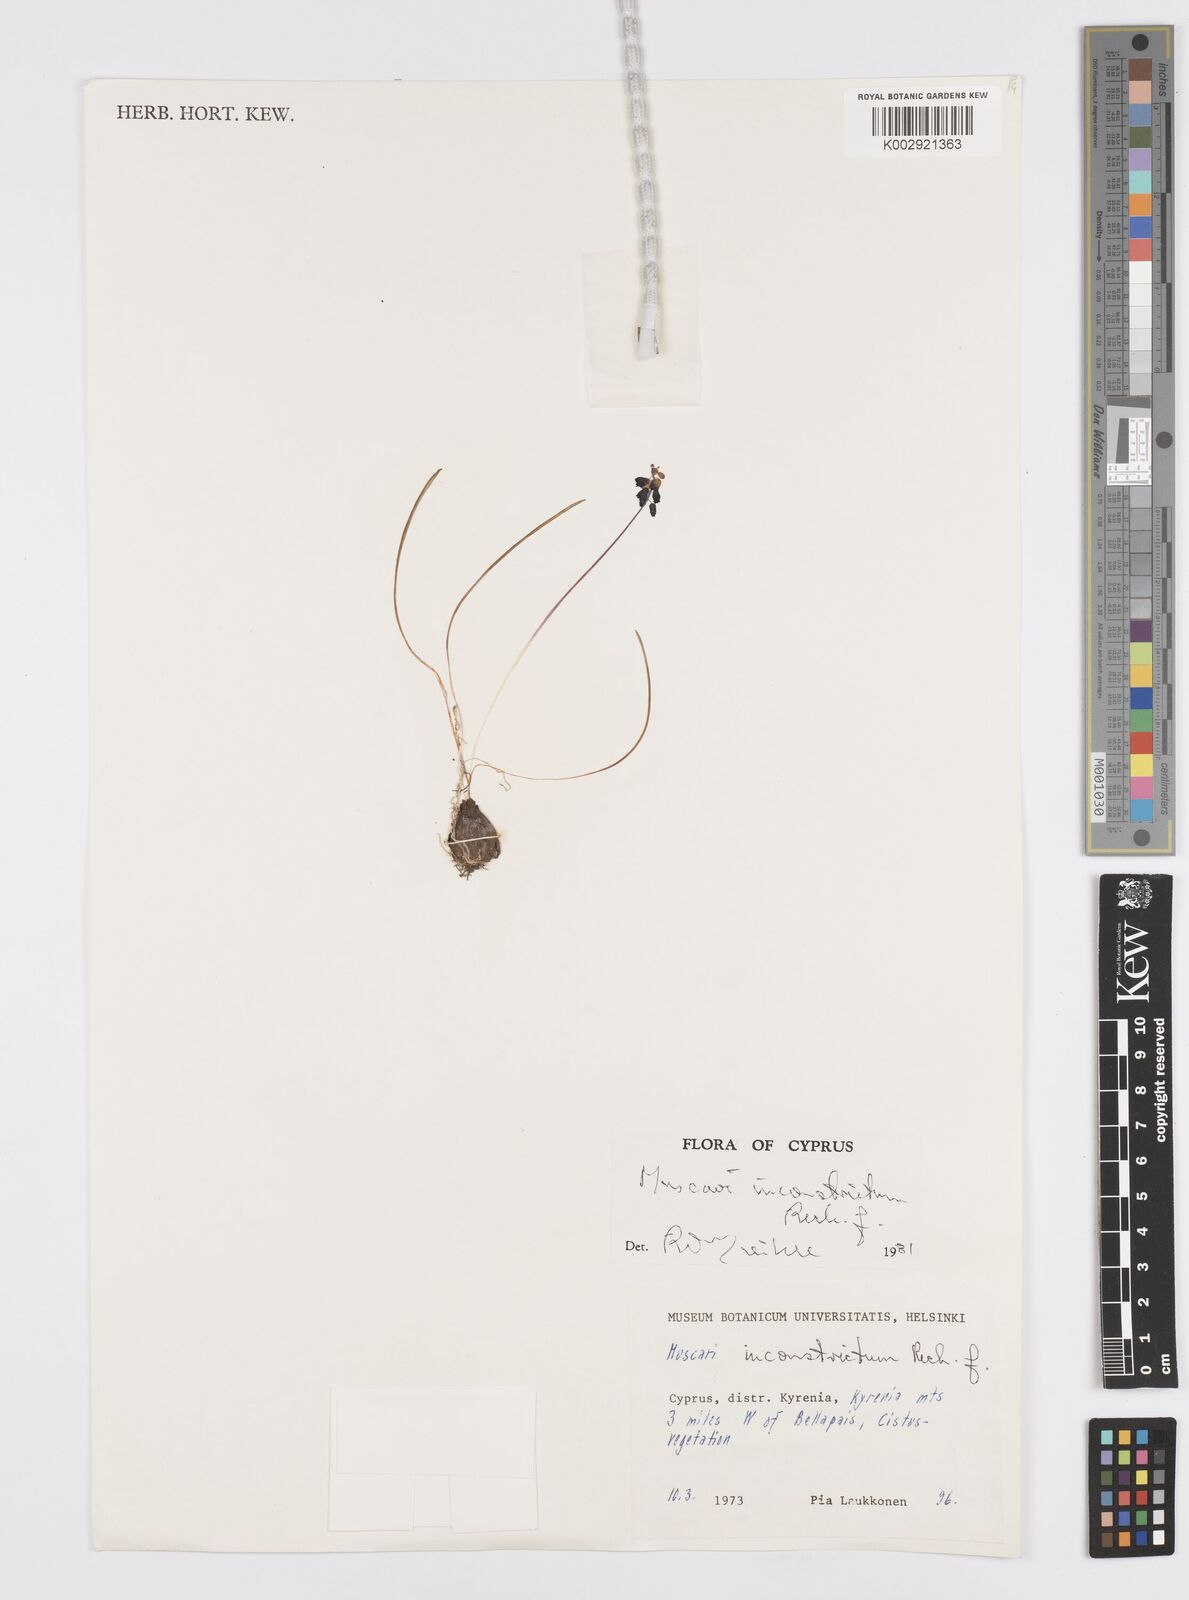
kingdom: Plantae
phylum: Tracheophyta
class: Liliopsida
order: Asparagales
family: Asparagaceae
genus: Muscari
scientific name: Muscari
